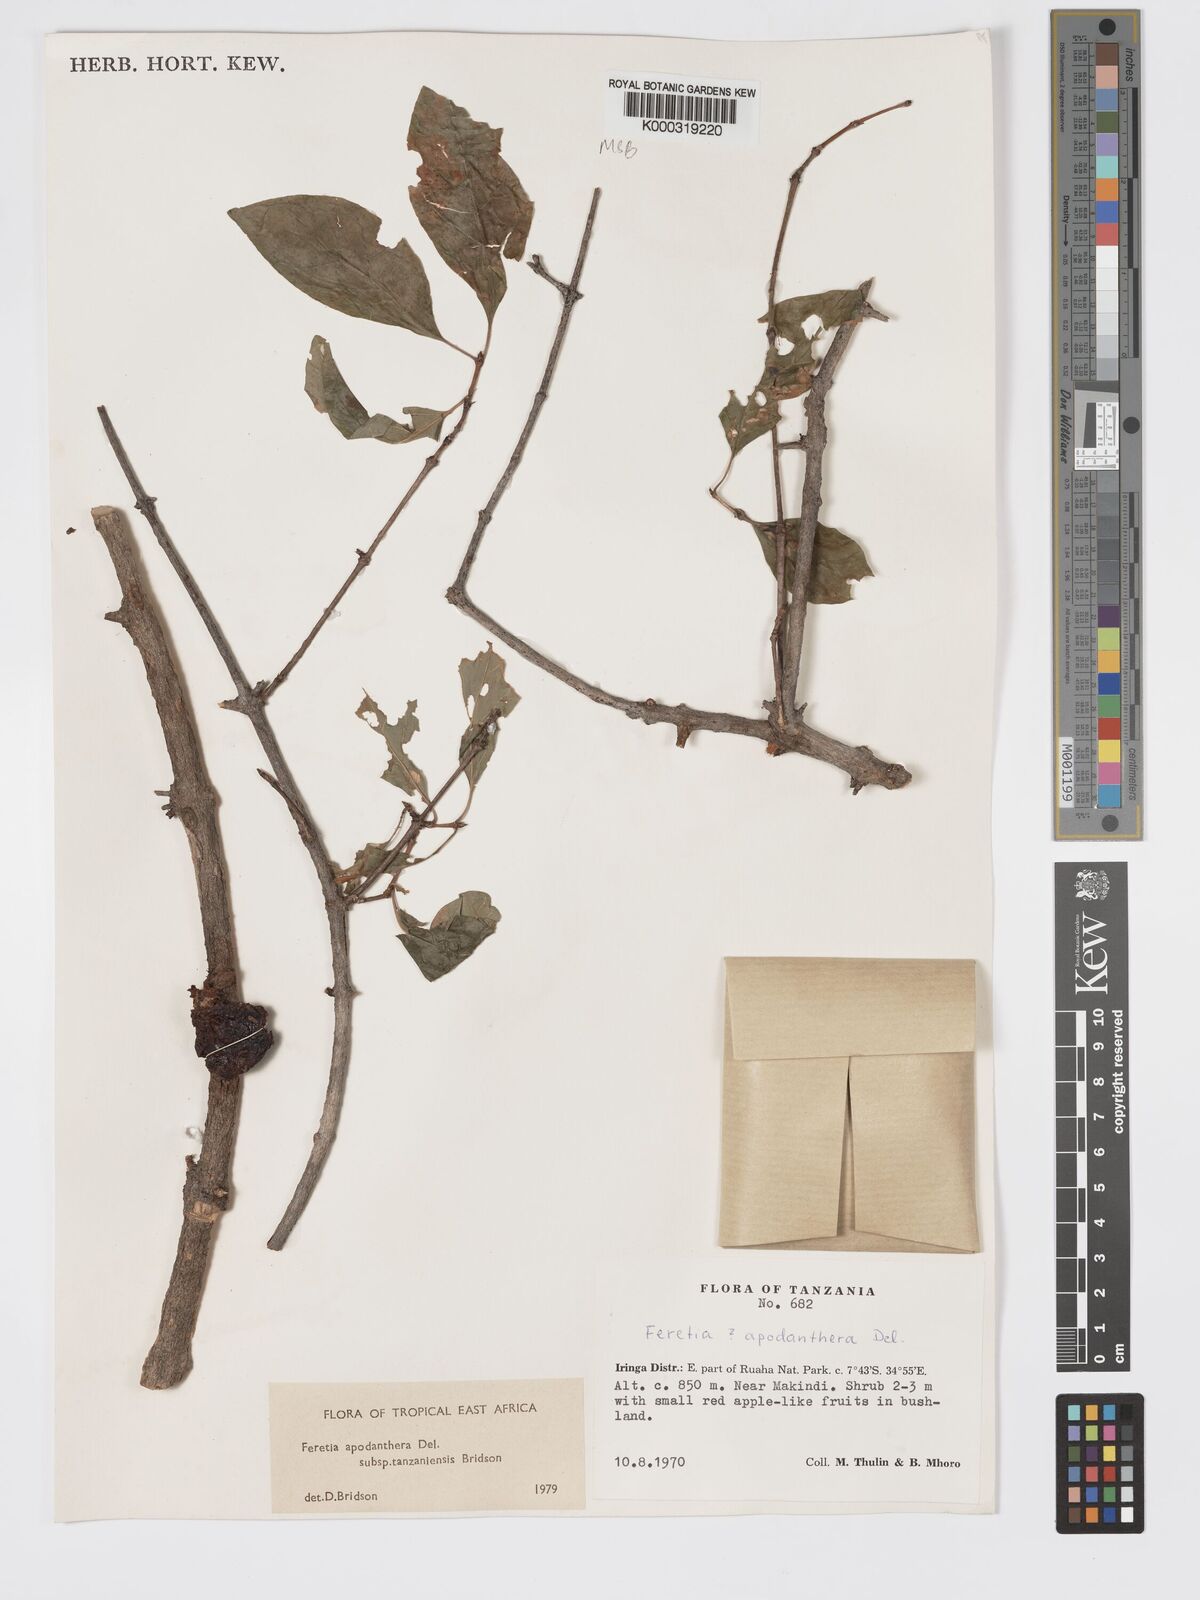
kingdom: Plantae
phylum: Tracheophyta
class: Magnoliopsida
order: Gentianales
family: Rubiaceae
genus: Feretia
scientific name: Feretia apodanthera
